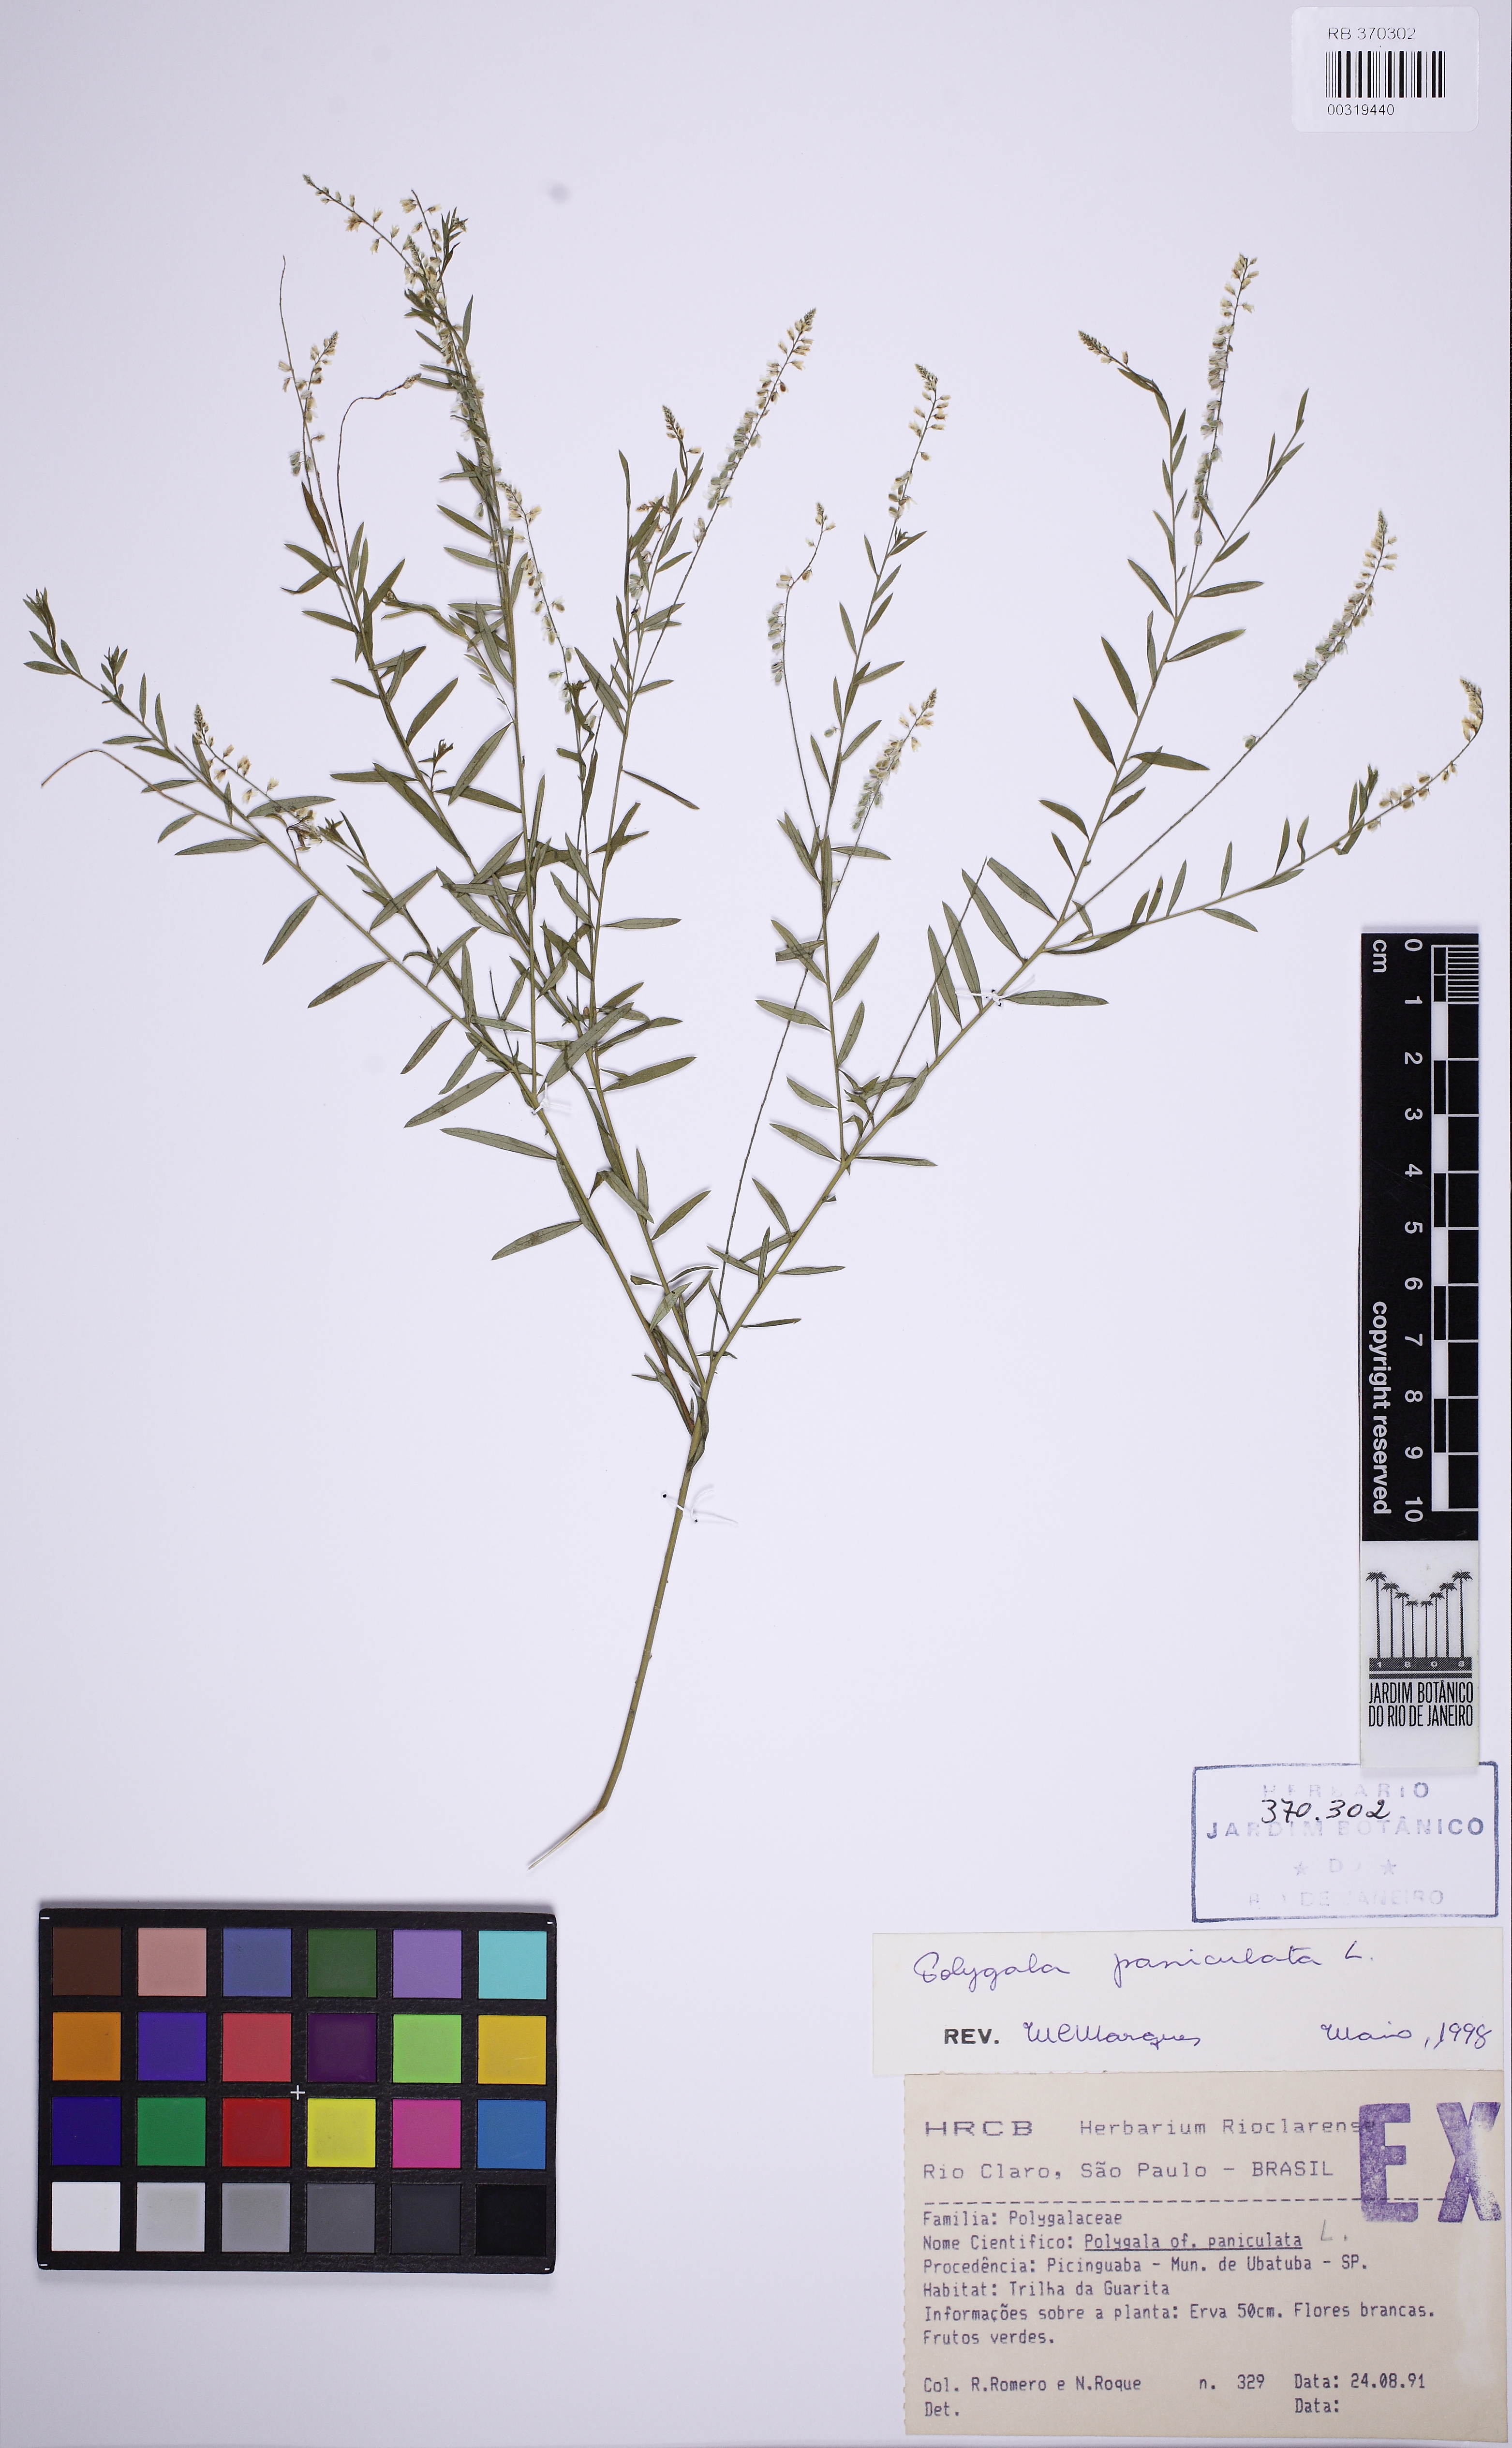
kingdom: Plantae
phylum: Tracheophyta
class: Magnoliopsida
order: Fabales
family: Polygalaceae
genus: Polygala
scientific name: Polygala paniculata
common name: Orosne
